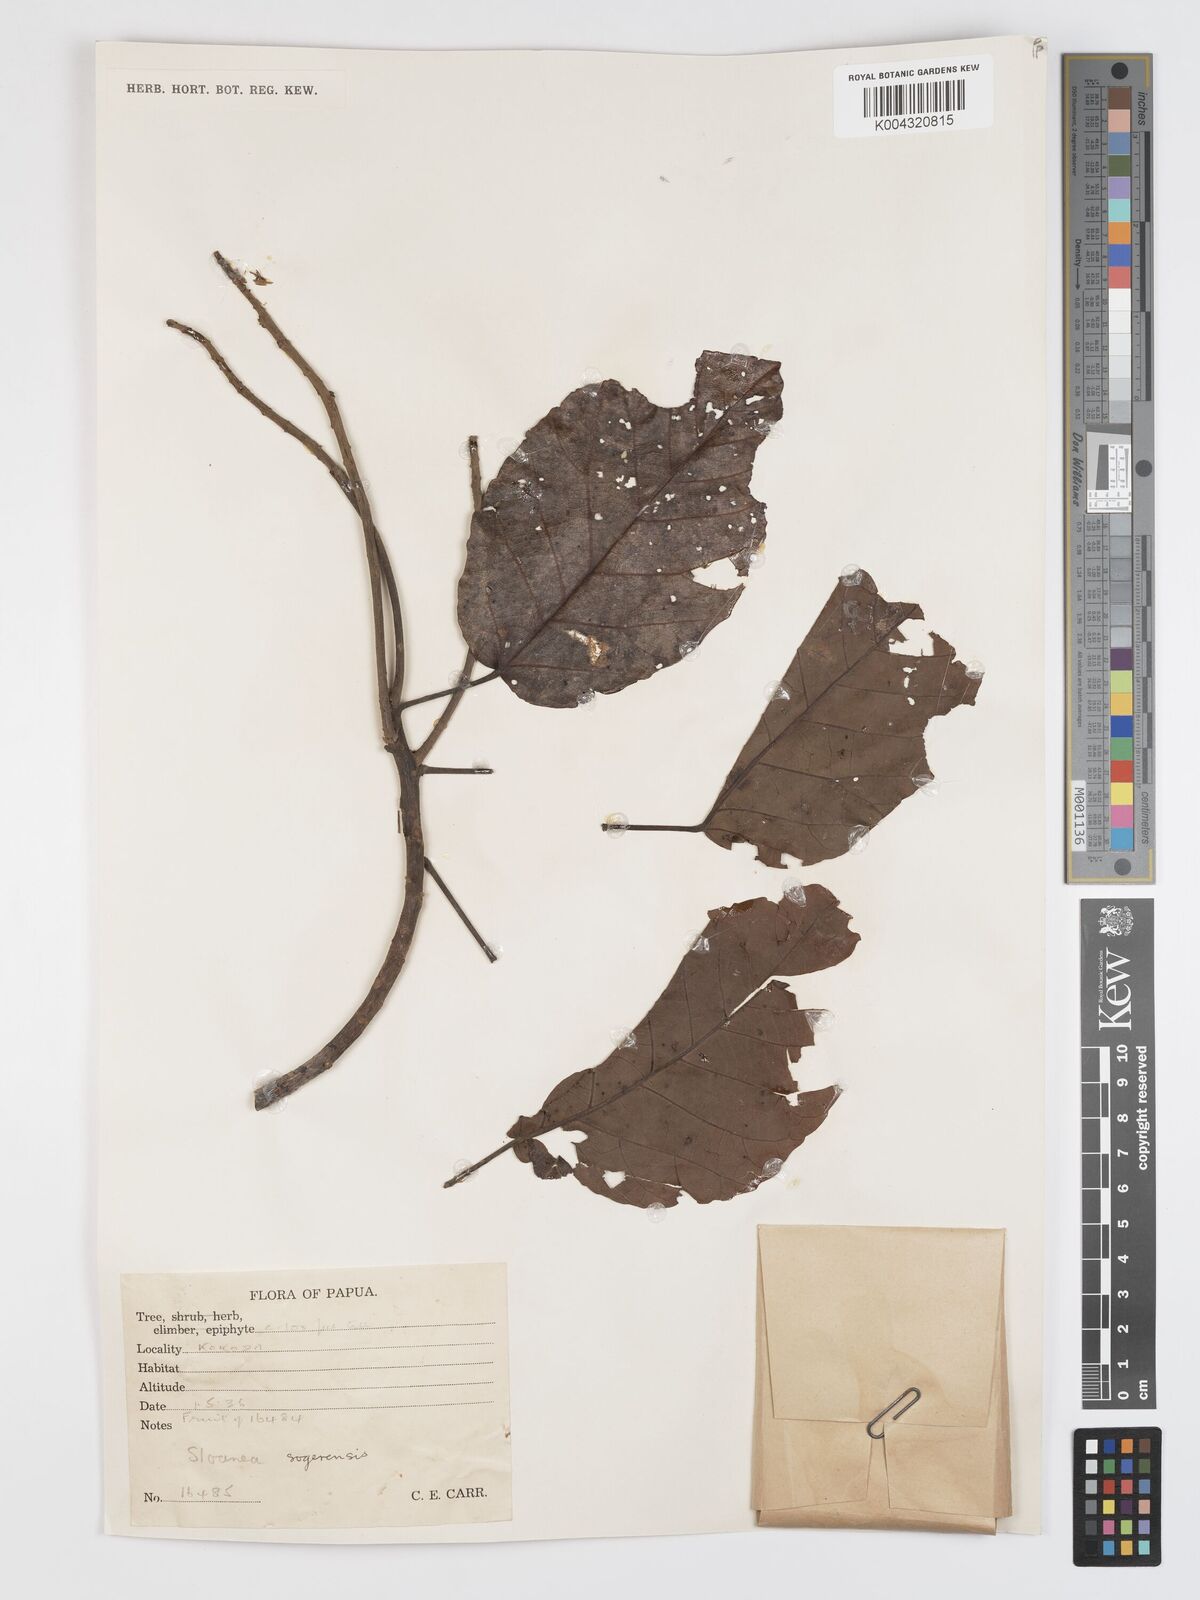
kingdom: Plantae
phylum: Tracheophyta
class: Magnoliopsida
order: Oxalidales
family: Elaeocarpaceae
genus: Sloanea
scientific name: Sloanea sogerensis
